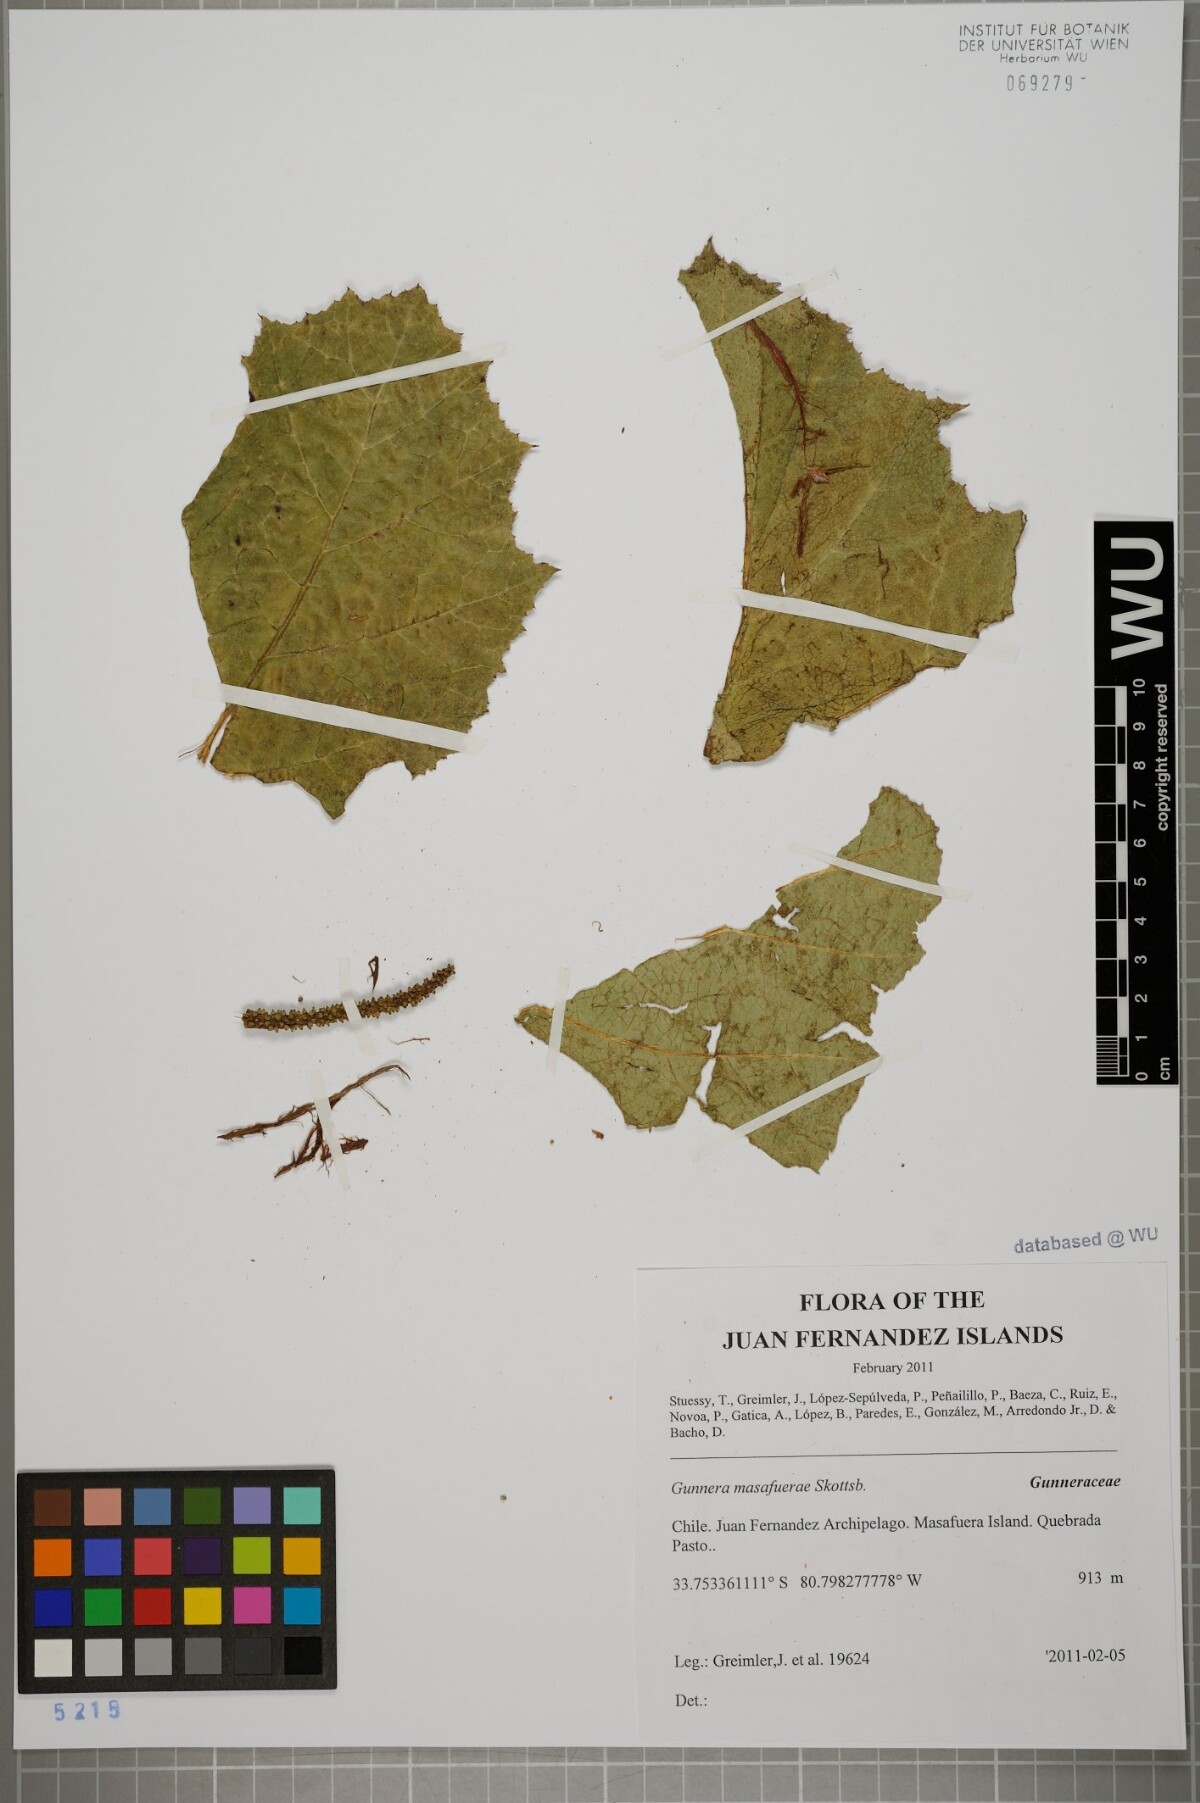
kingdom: Plantae
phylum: Tracheophyta
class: Magnoliopsida
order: Gunnerales
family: Gunneraceae
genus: Gunnera
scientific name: Gunnera masafuerae
